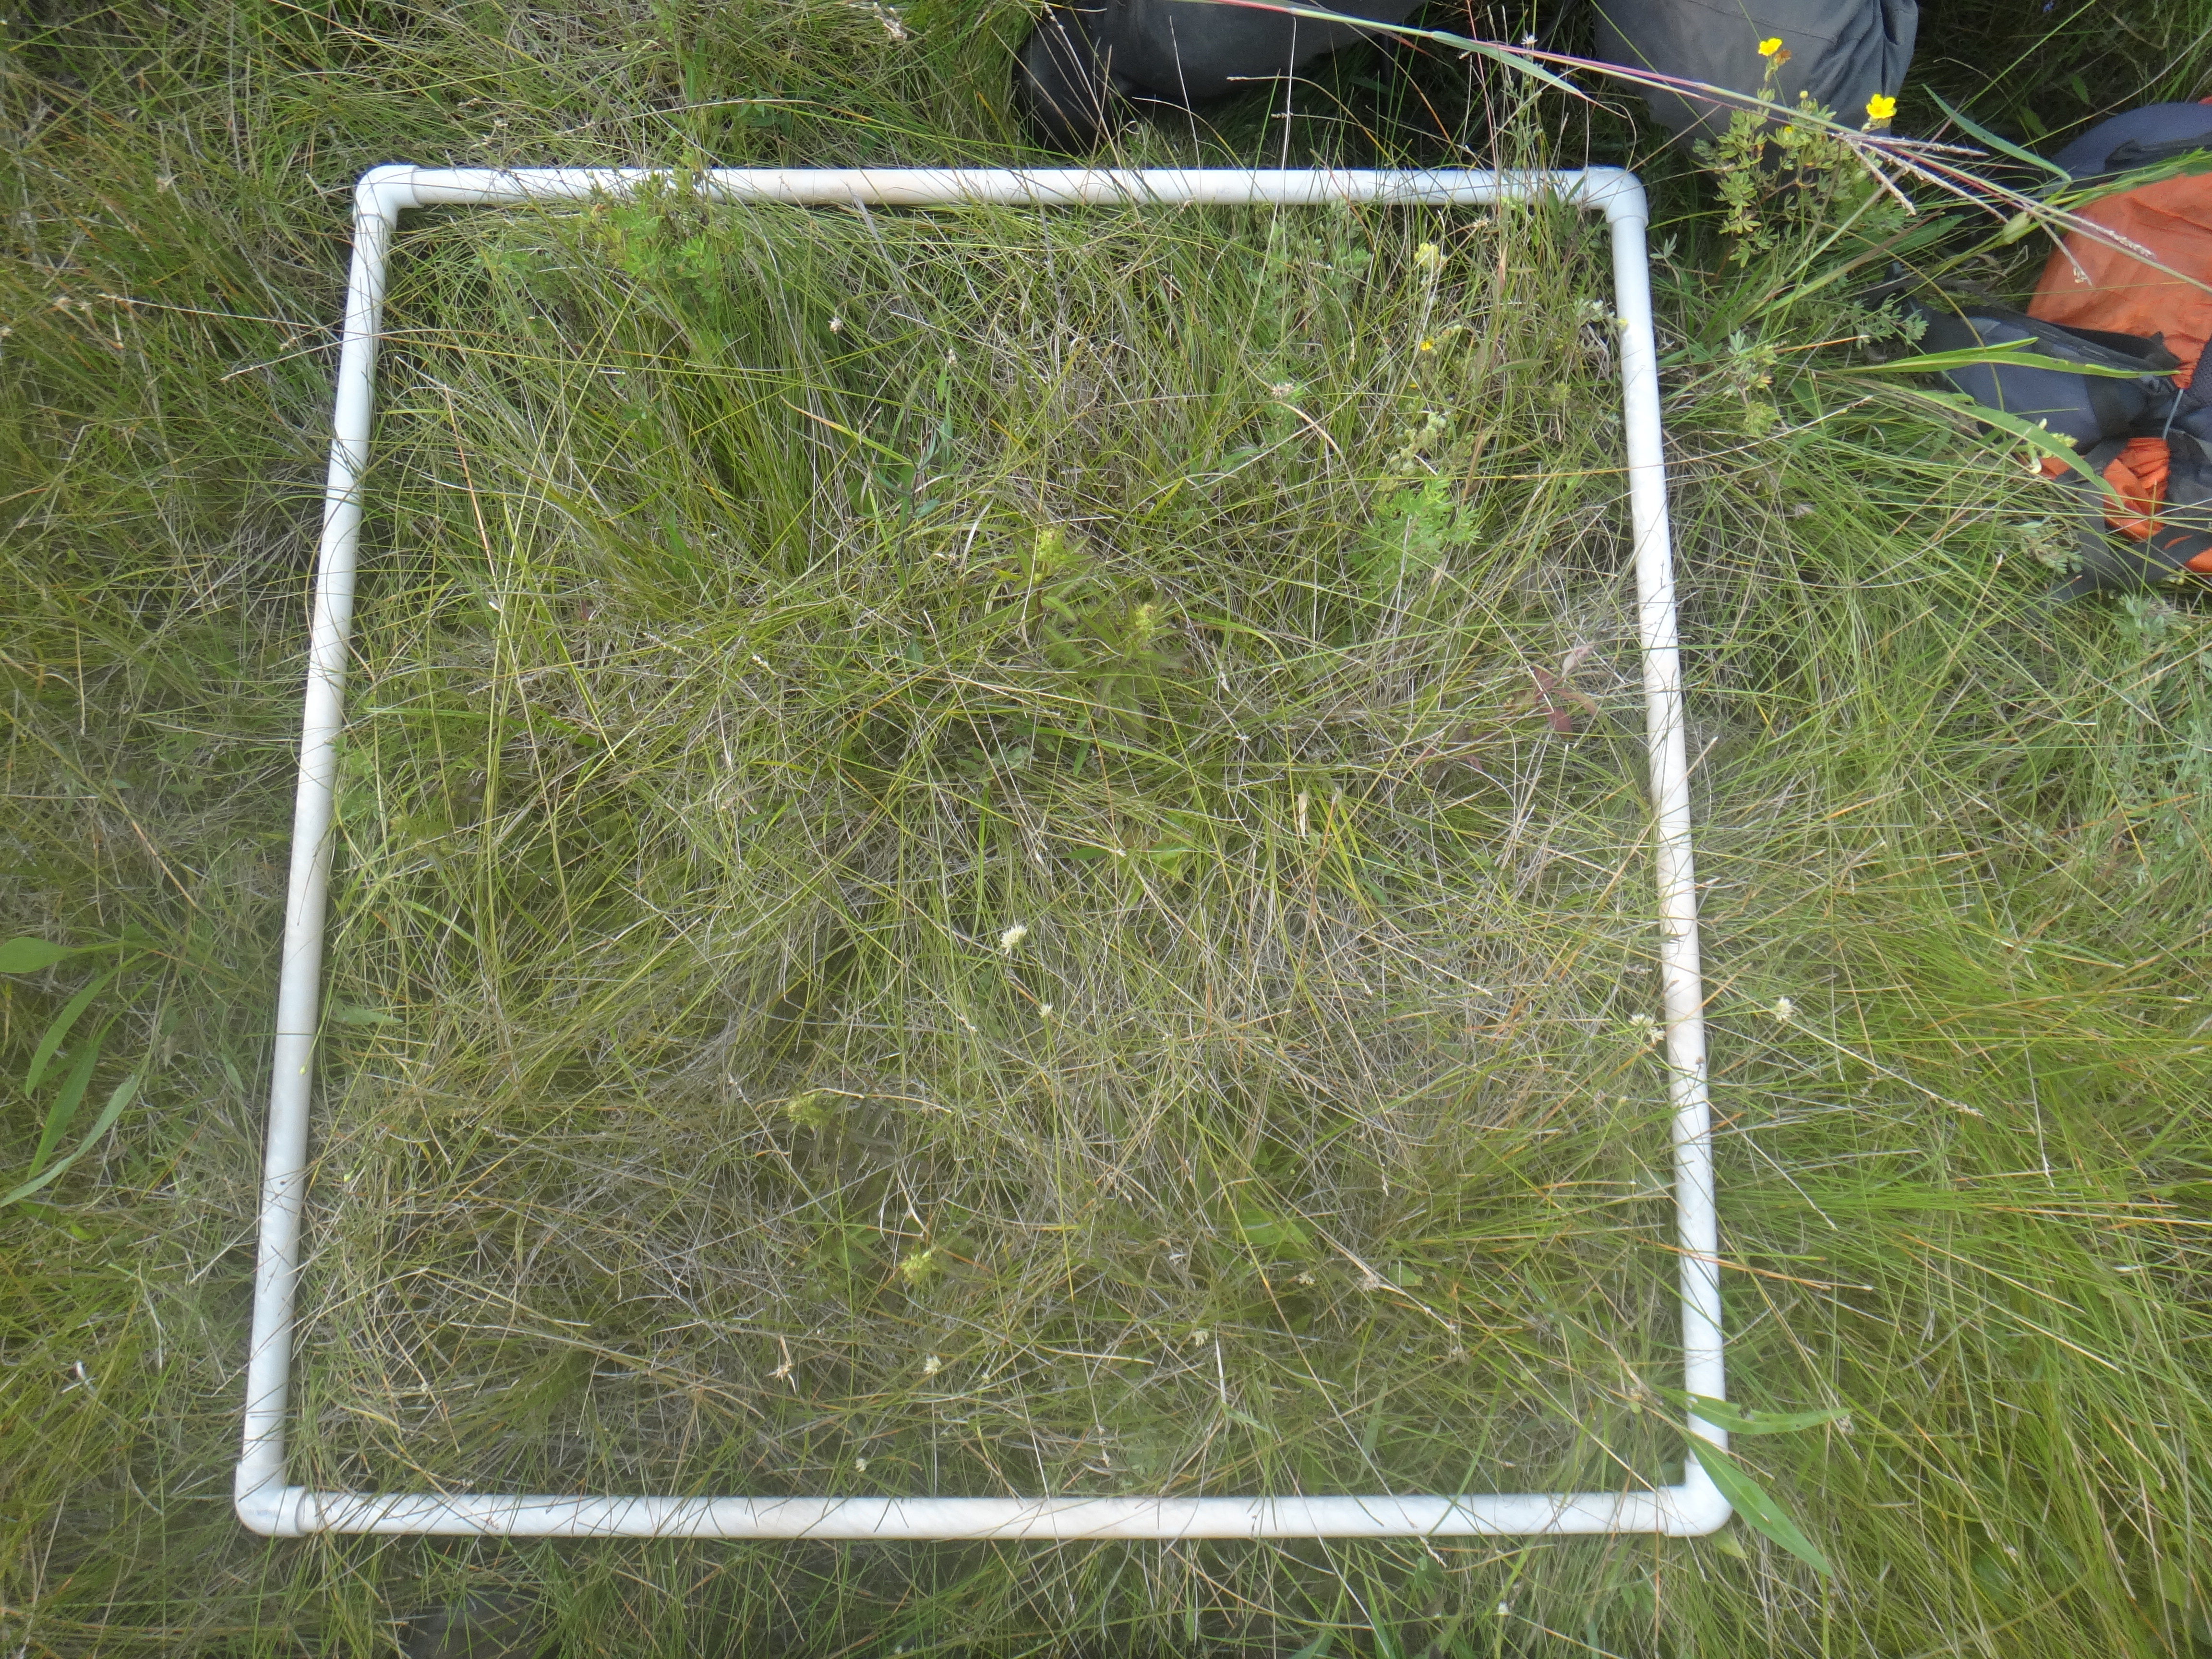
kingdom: Plantae
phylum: Tracheophyta
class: Magnoliopsida
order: Asterales
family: Asteraceae
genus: Eupatorium
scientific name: Eupatorium perfoliatum
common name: Boneset
